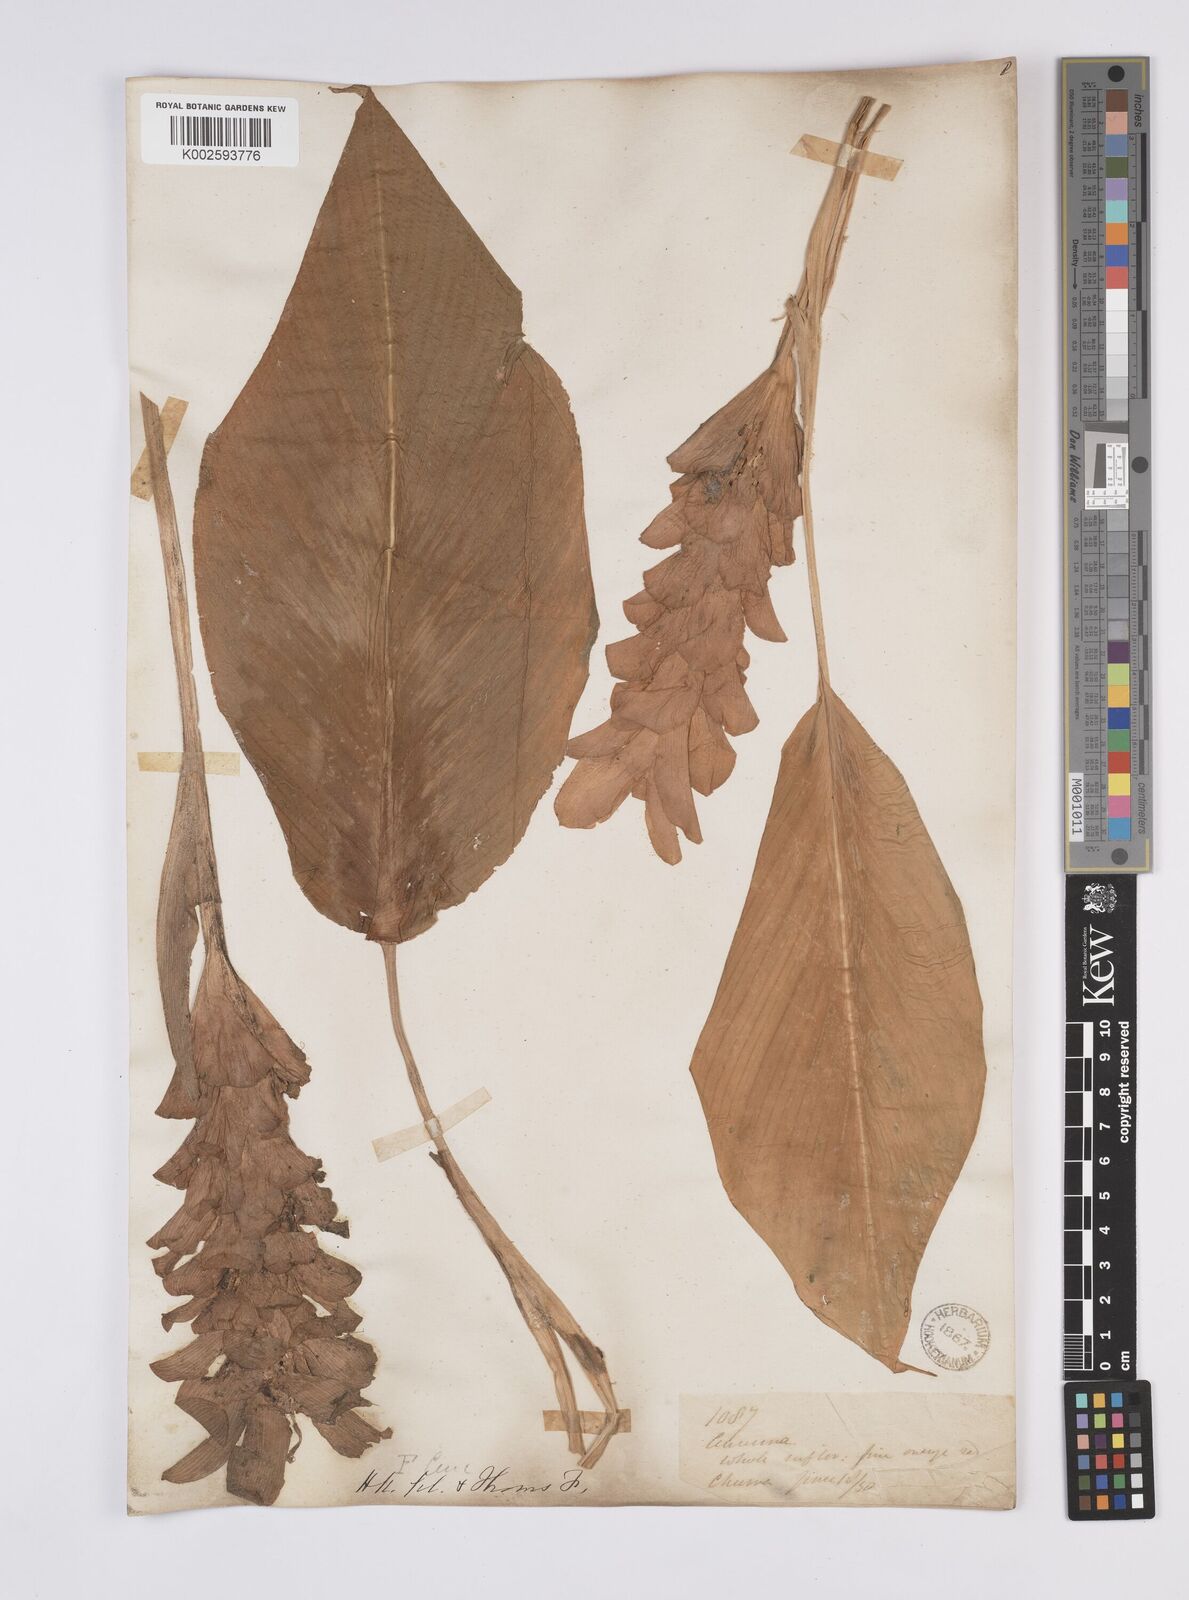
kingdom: Plantae
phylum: Tracheophyta
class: Liliopsida
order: Zingiberales
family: Zingiberaceae
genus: Curcuma
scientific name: Curcuma
